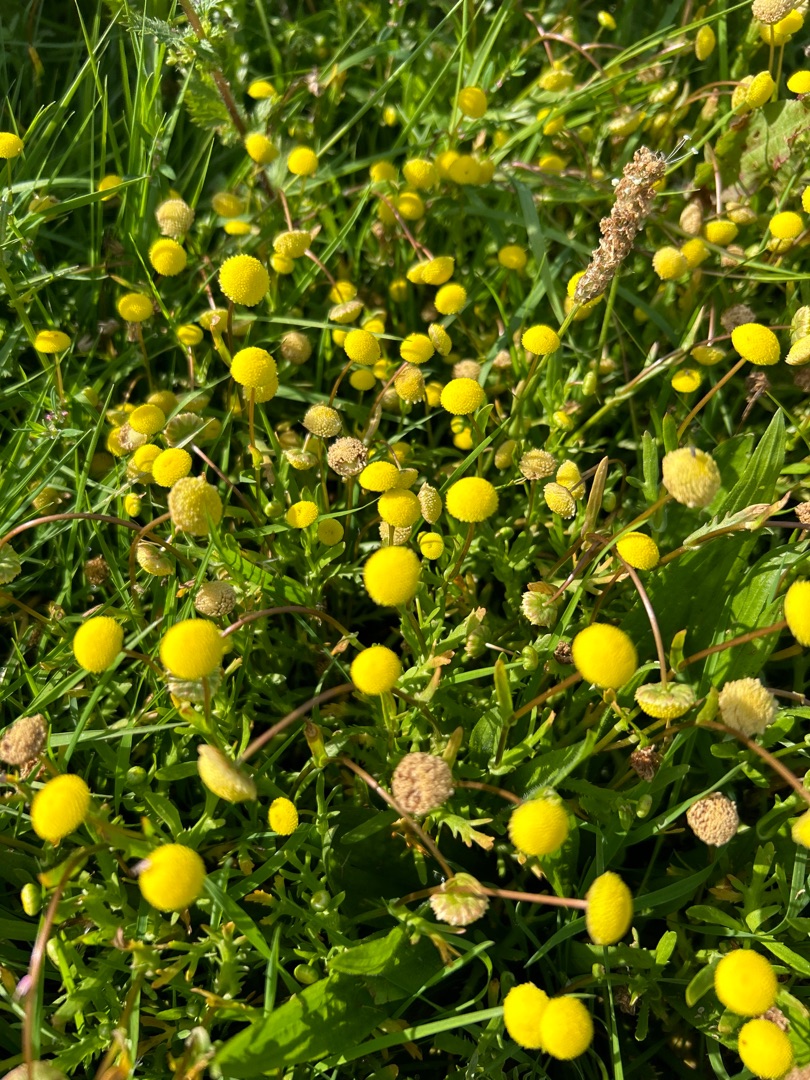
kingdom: Plantae
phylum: Tracheophyta
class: Magnoliopsida
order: Asterales
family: Asteraceae
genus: Cotula
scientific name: Cotula coronopifolia
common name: Firkløft
